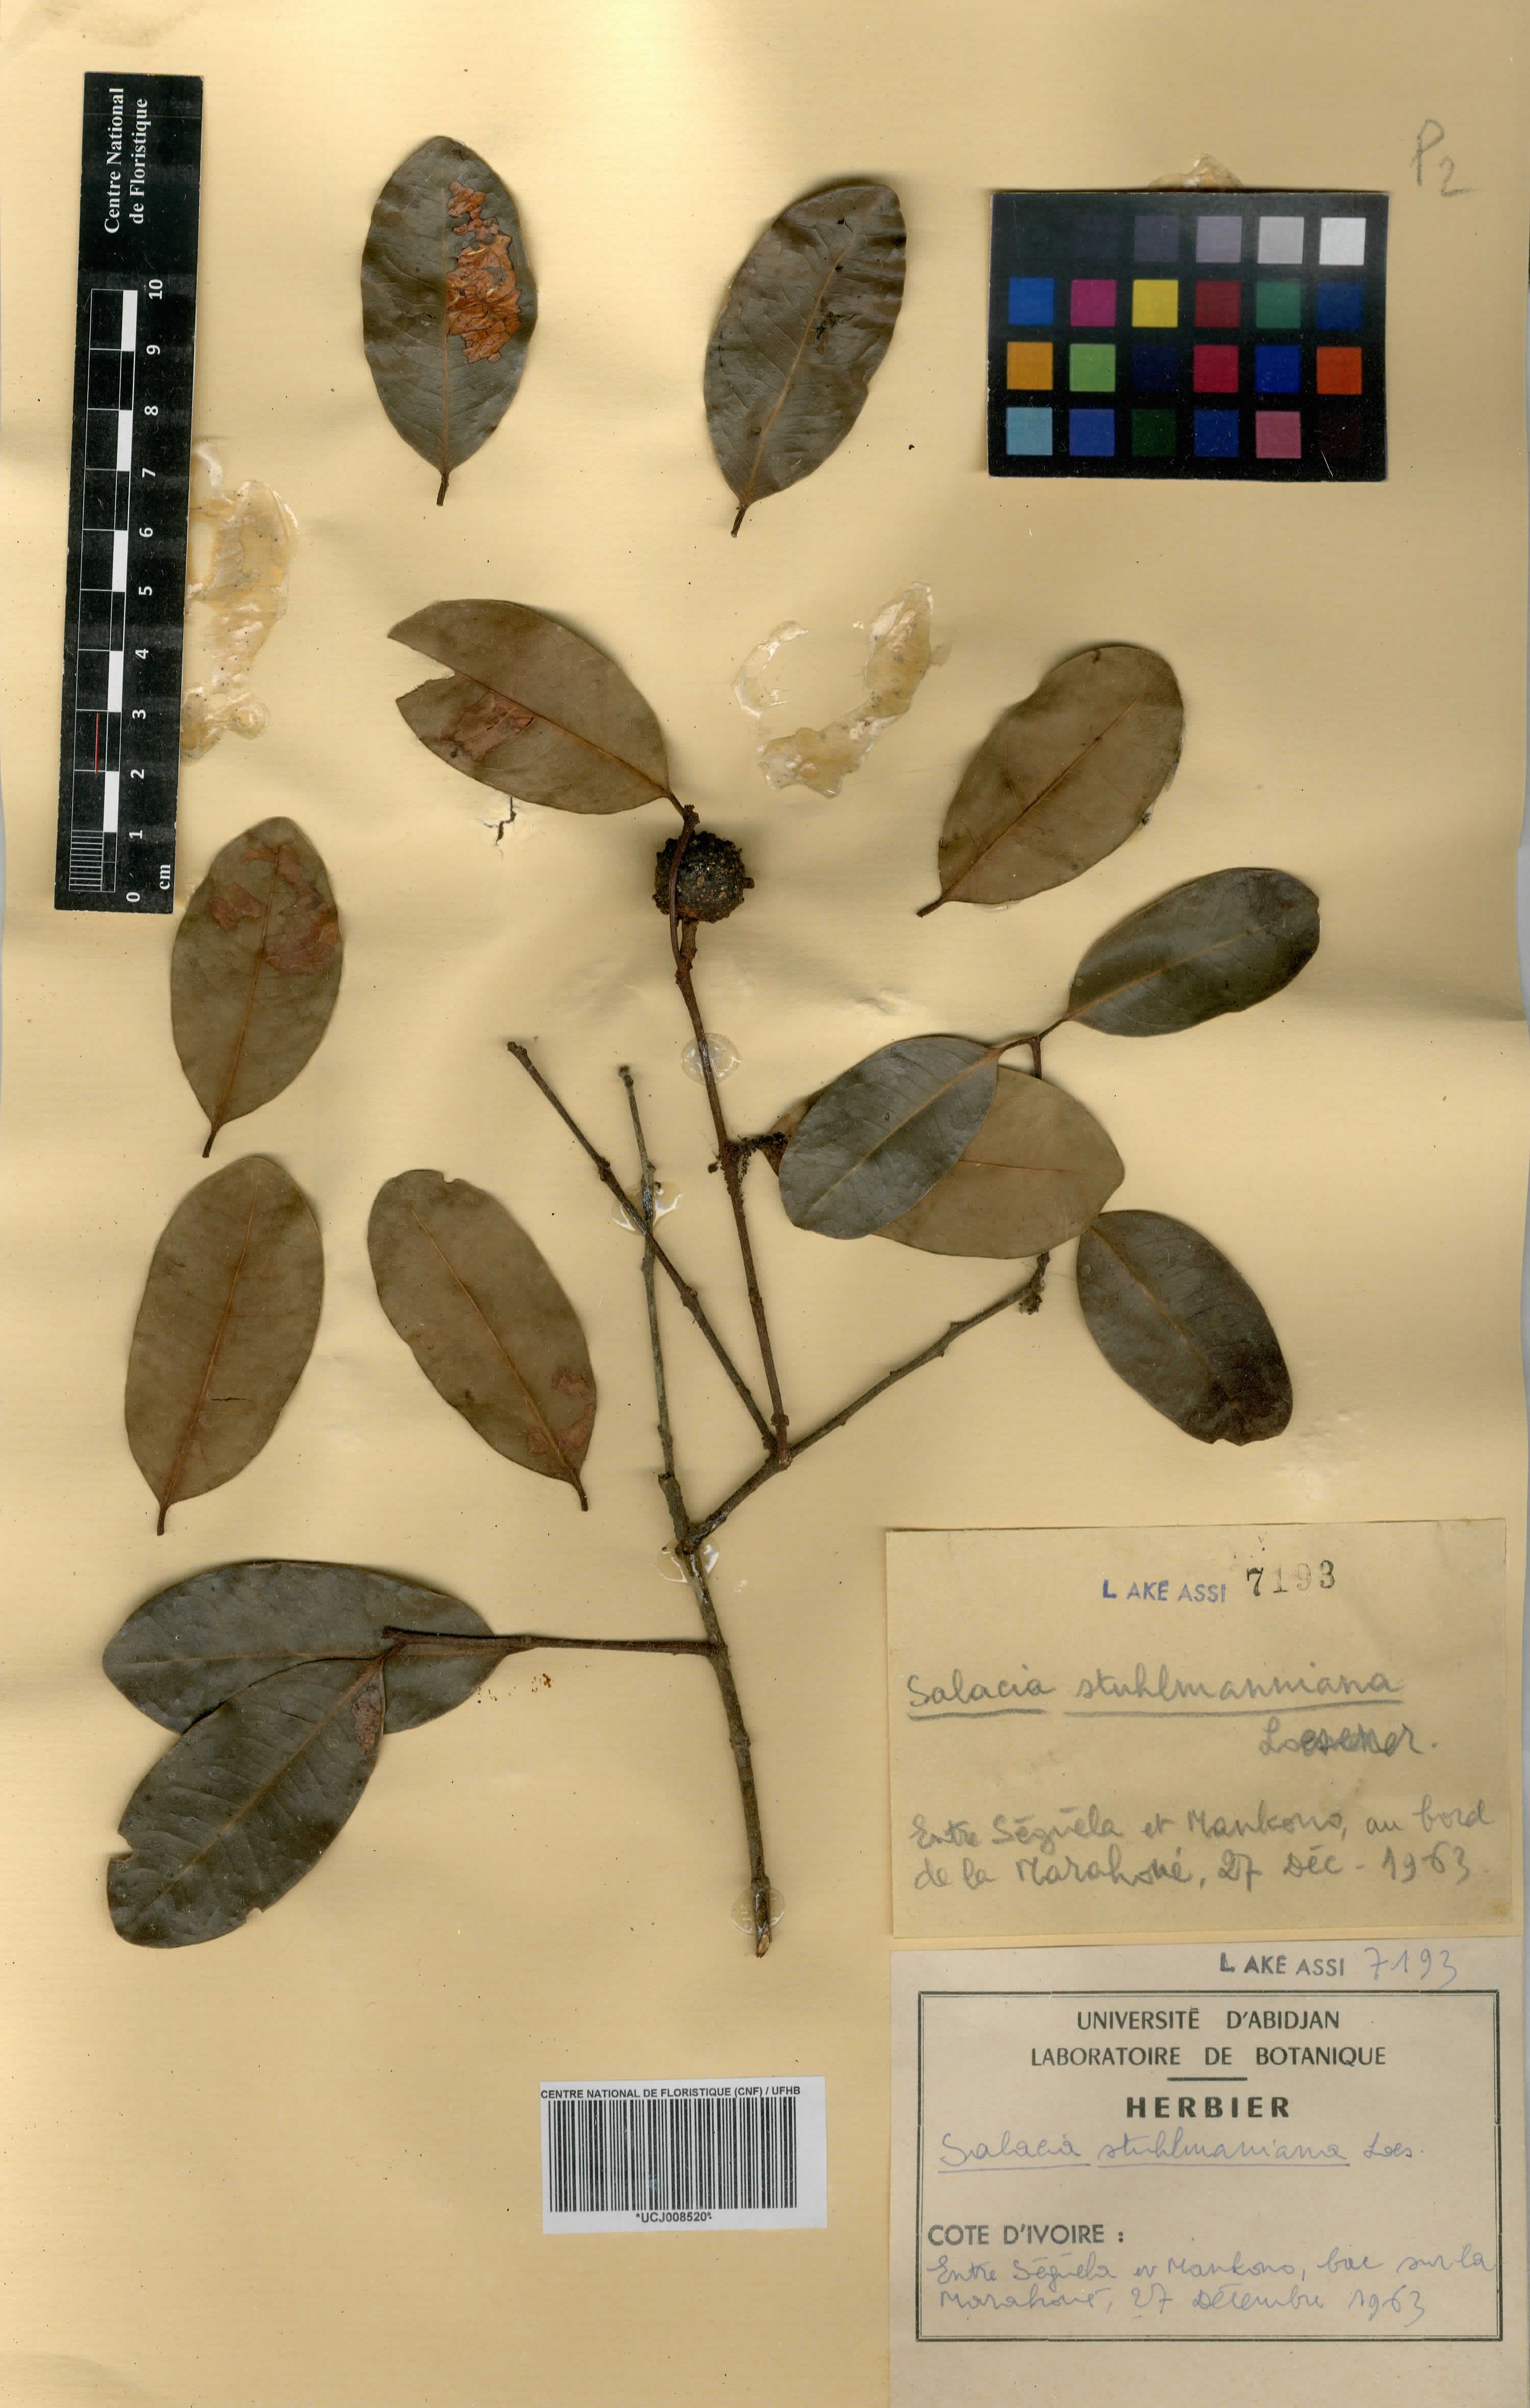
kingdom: Plantae
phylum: Tracheophyta
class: Magnoliopsida
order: Celastrales
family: Celastraceae
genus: Salacia
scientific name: Salacia stuhlmanniana
